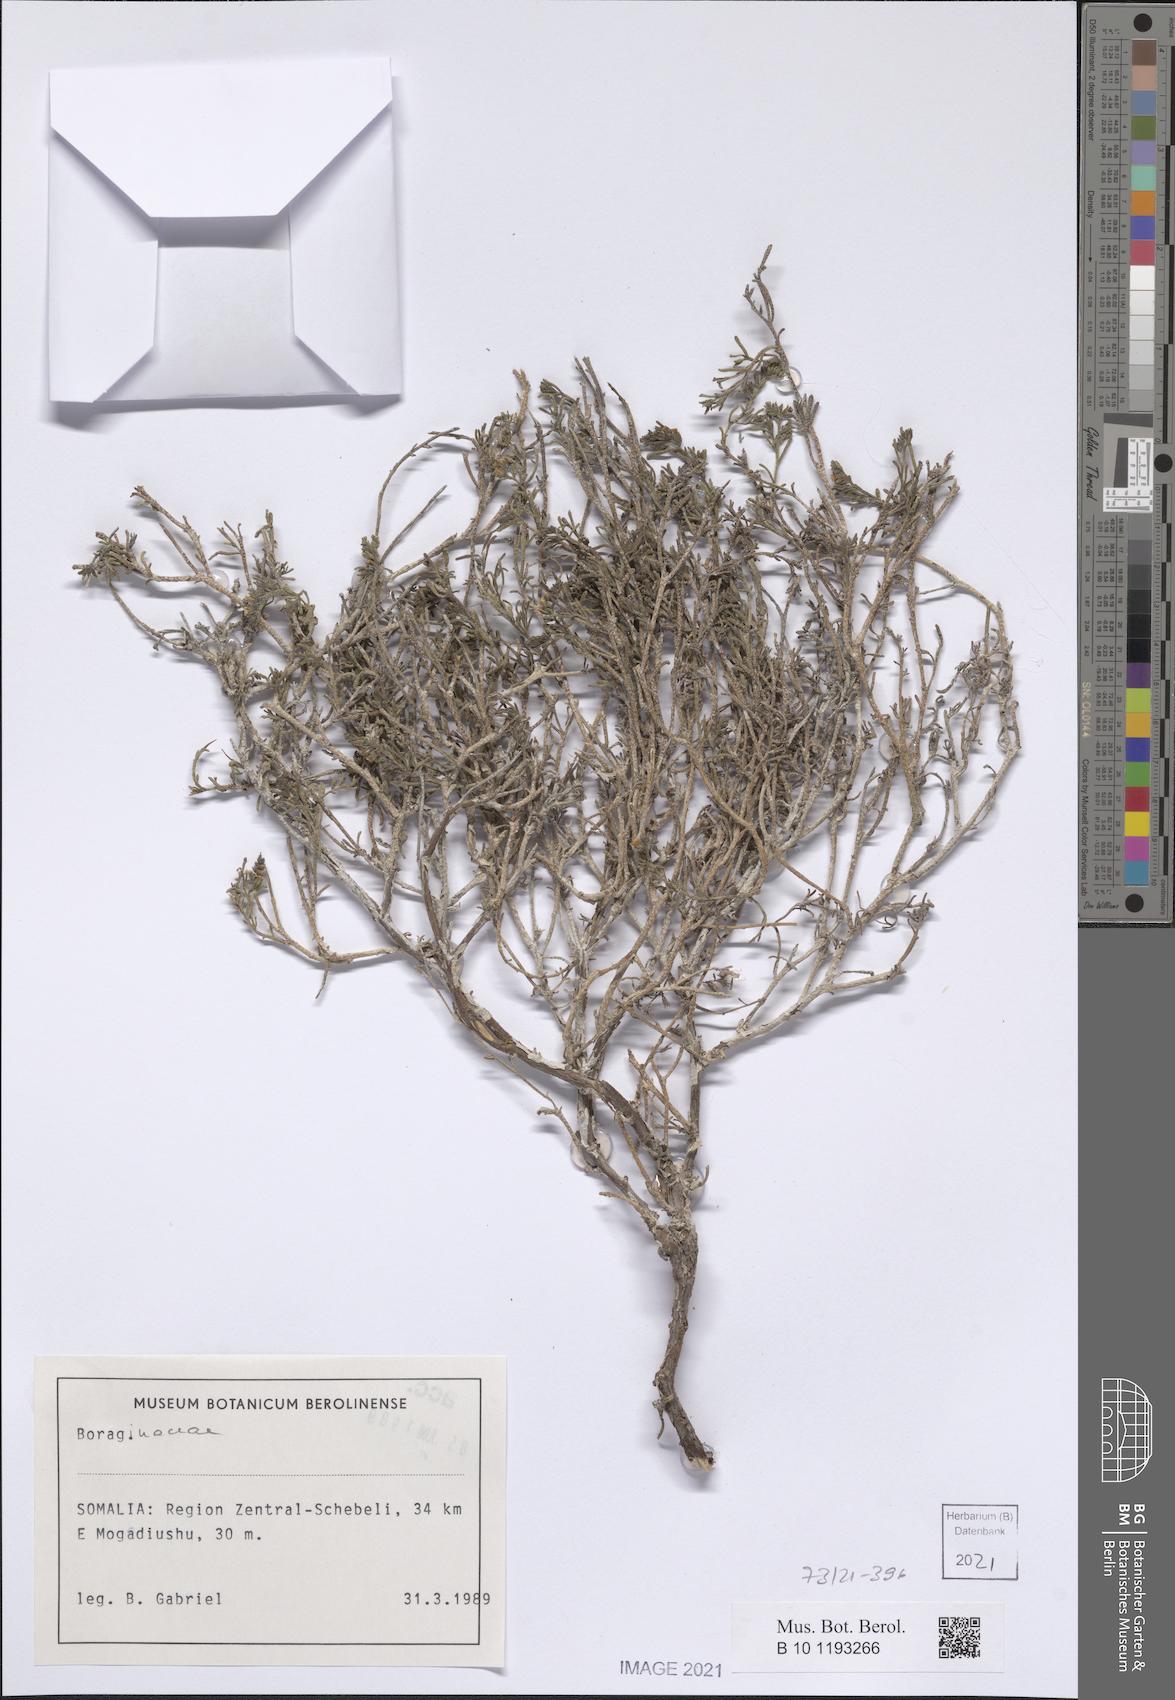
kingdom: Plantae
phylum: Tracheophyta
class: Magnoliopsida
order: Boraginales
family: Boraginaceae
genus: Echiochilon
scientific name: Echiochilon arenarium
